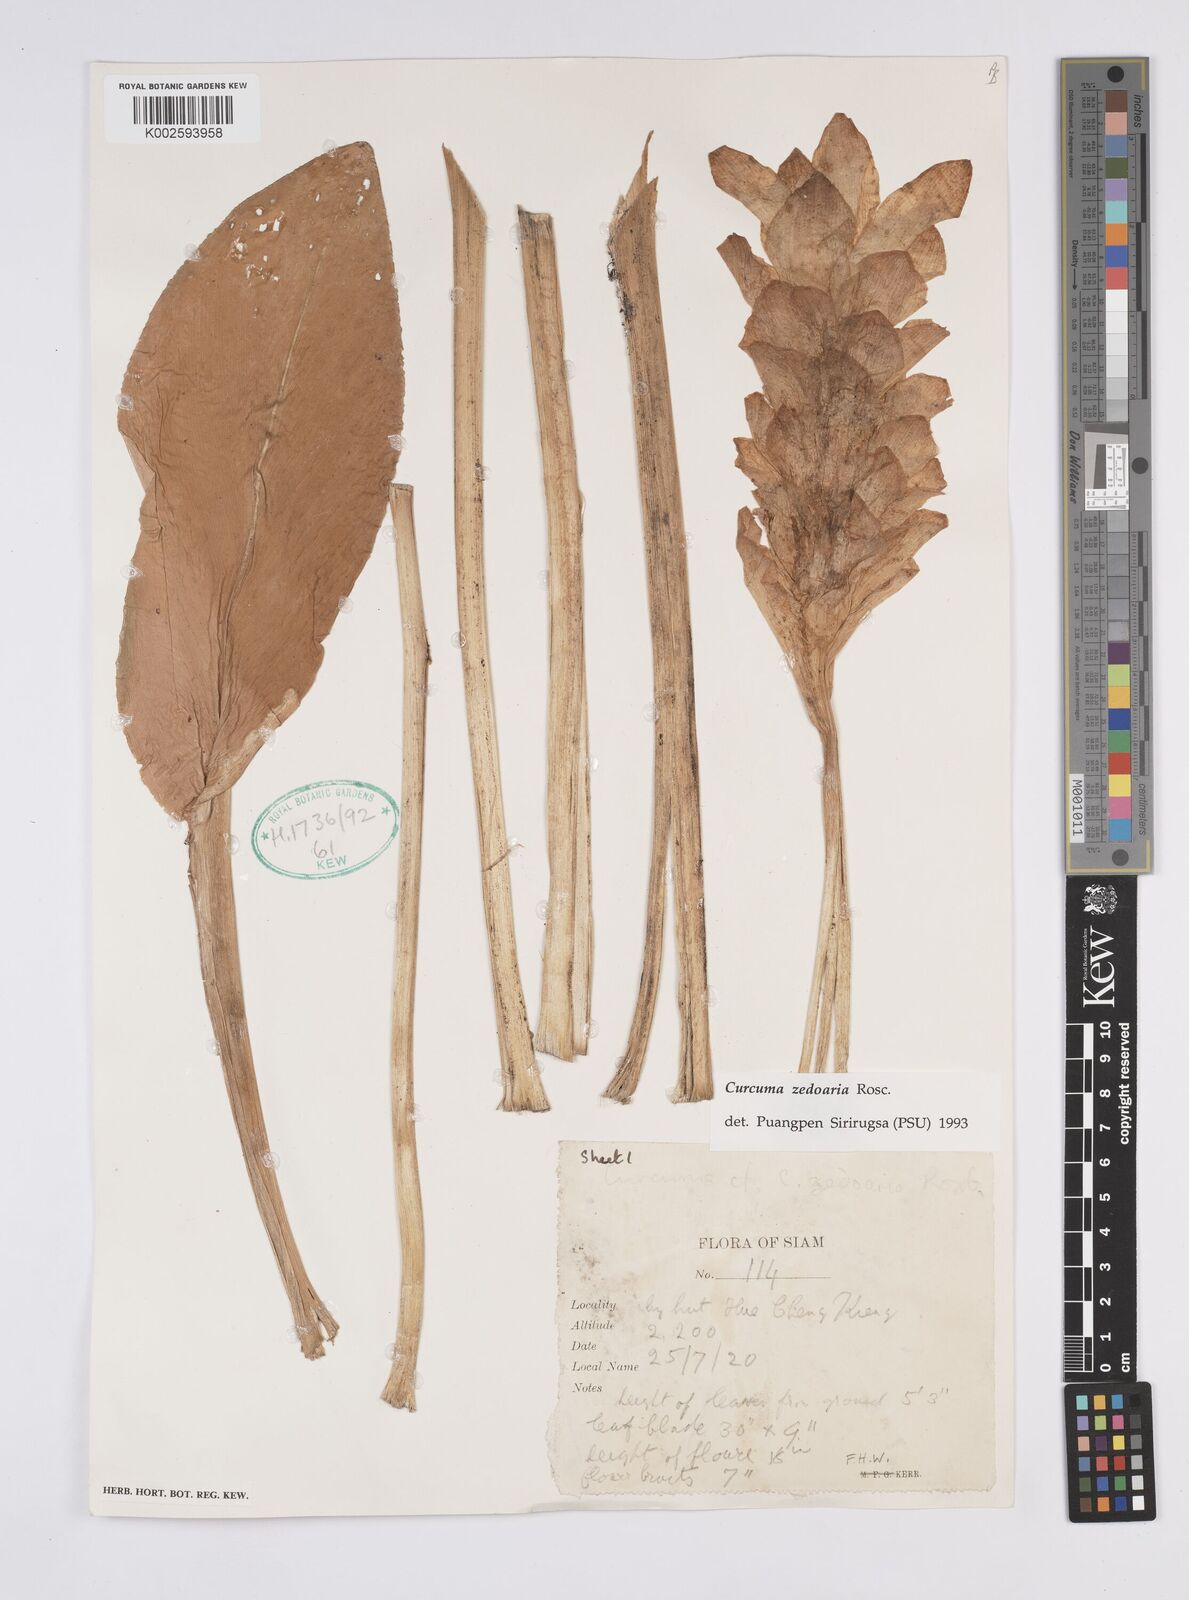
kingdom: Plantae
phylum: Tracheophyta
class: Liliopsida
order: Zingiberales
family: Zingiberaceae
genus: Curcuma
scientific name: Curcuma aromatica
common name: Wild turmeric
